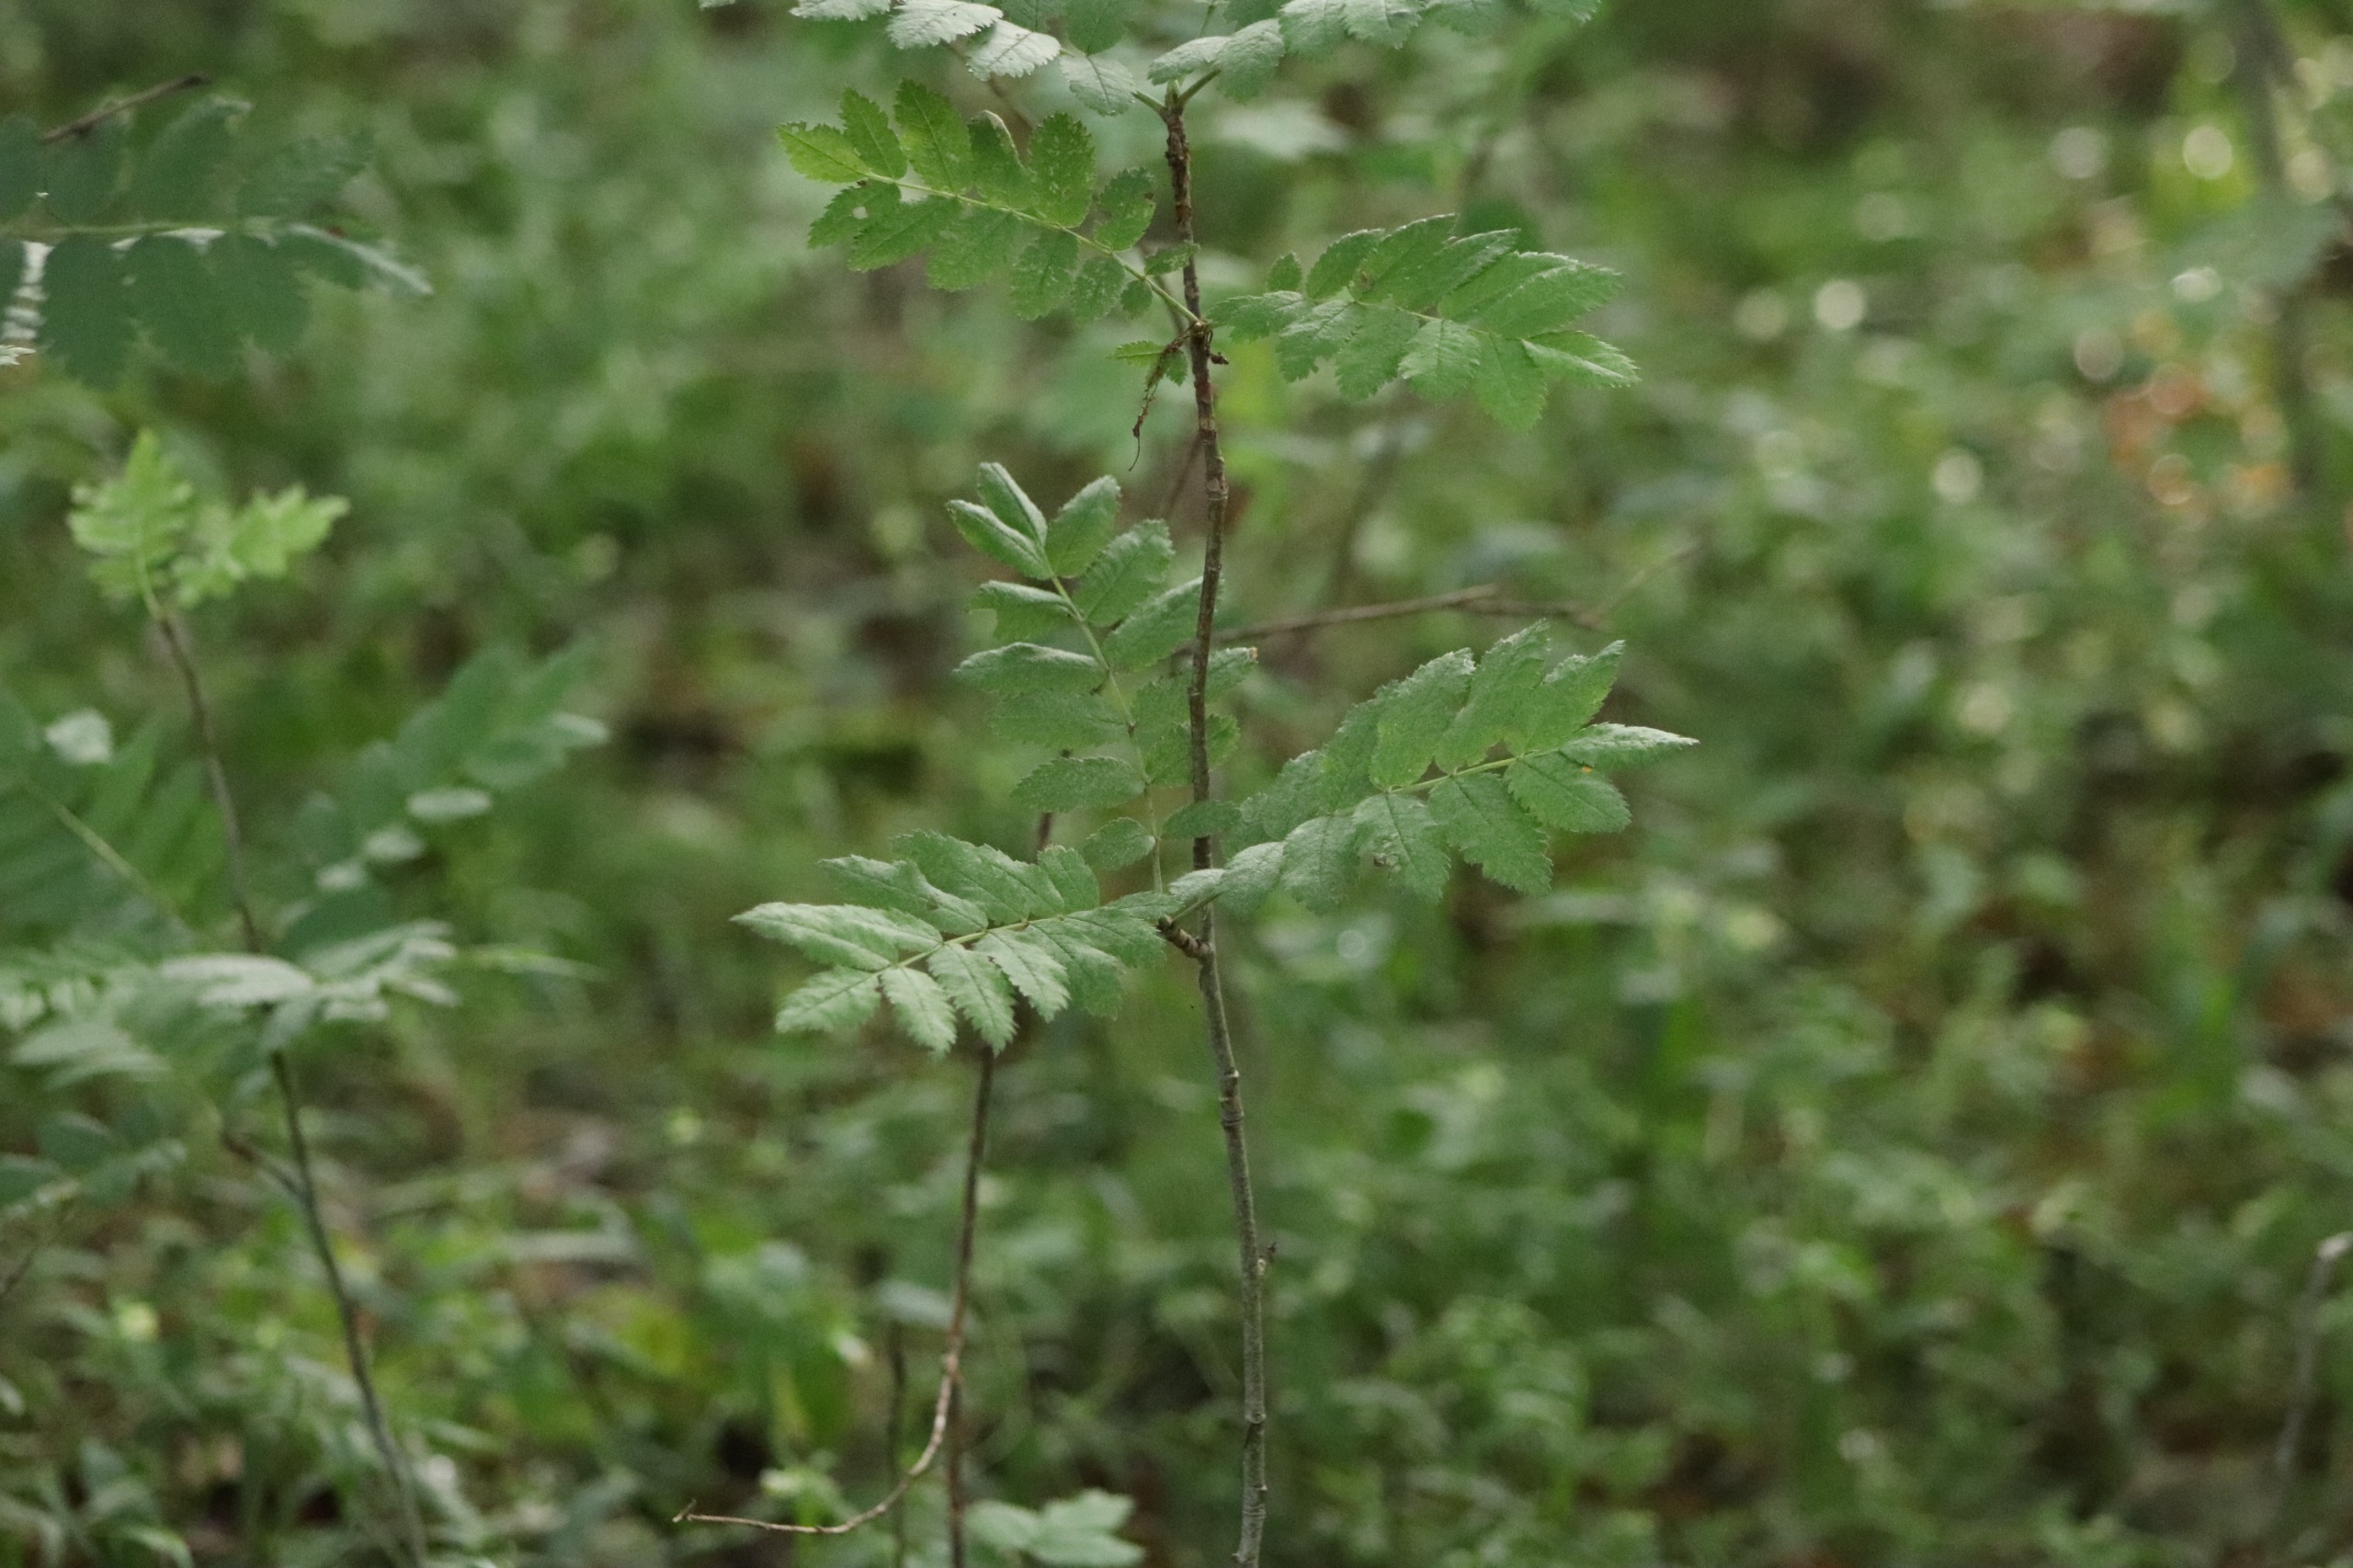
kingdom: Plantae
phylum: Tracheophyta
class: Magnoliopsida
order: Rosales
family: Rosaceae
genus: Sorbus
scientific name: Sorbus aucuparia
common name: Almindelig røn
